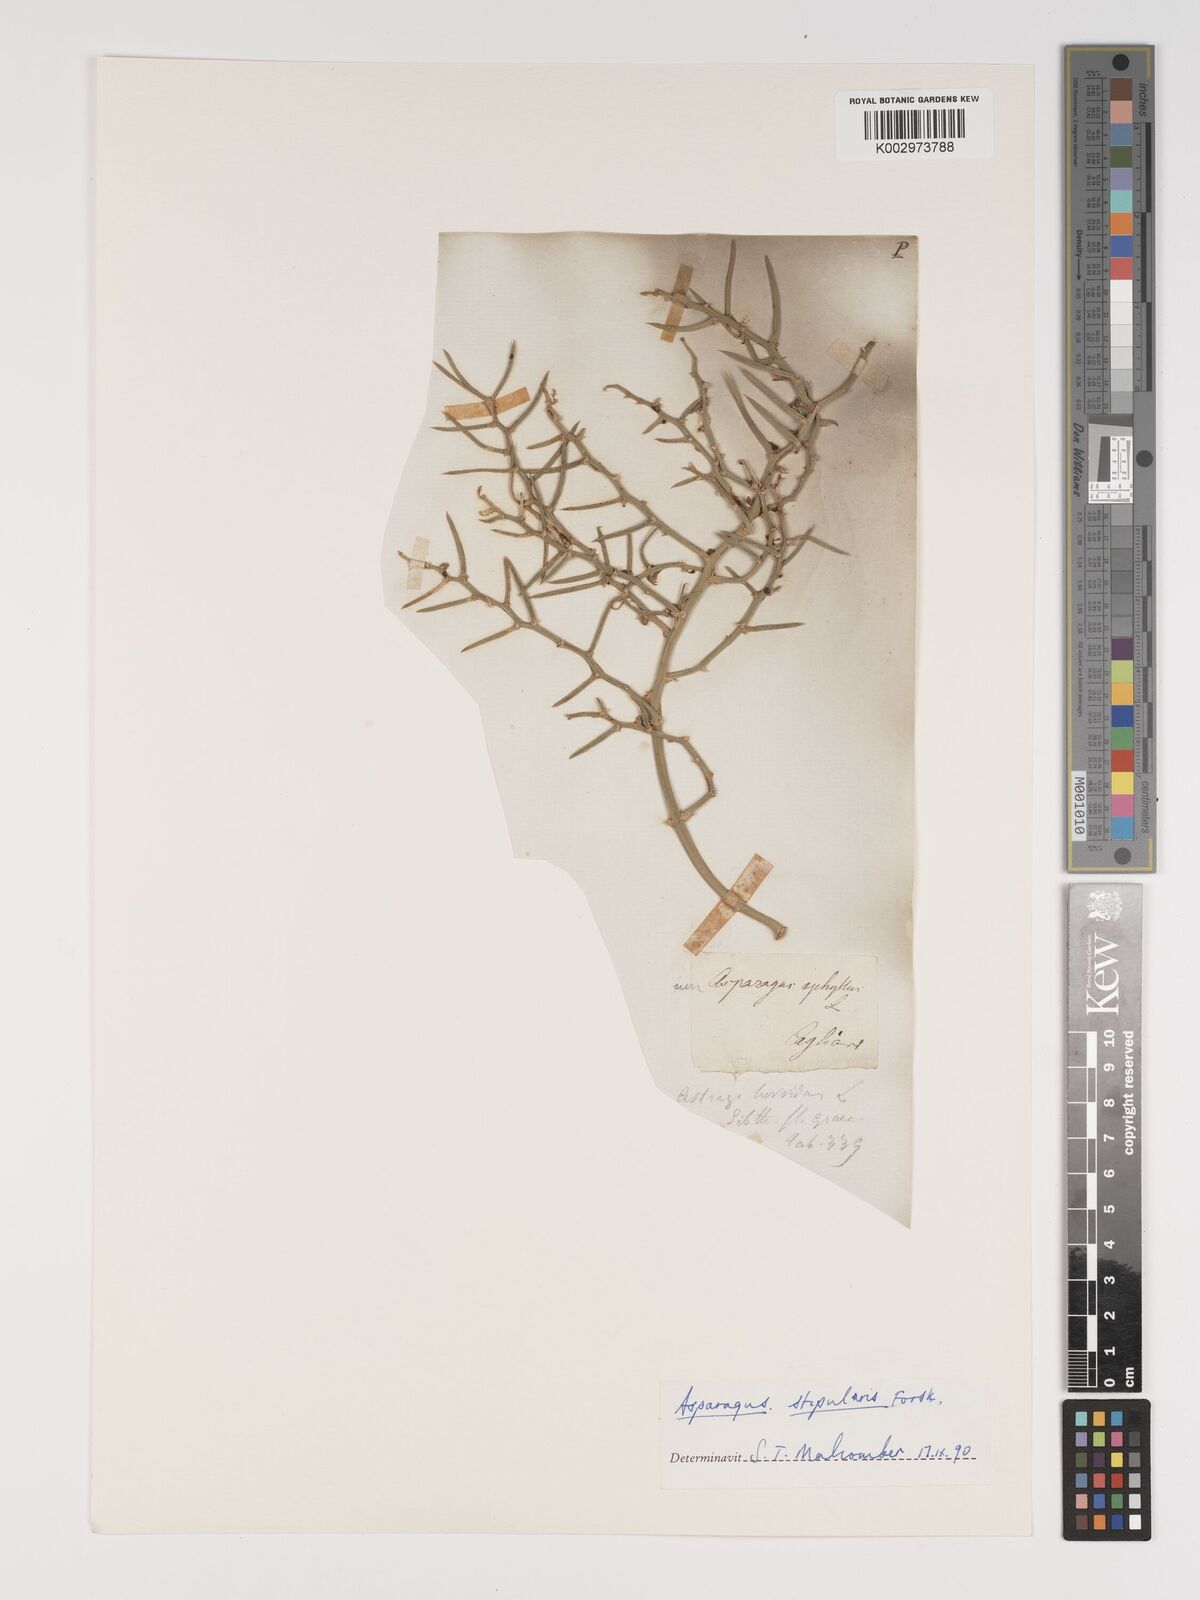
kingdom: Plantae
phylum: Tracheophyta
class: Liliopsida
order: Asparagales
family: Asparagaceae
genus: Asparagus
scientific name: Asparagus horridus
